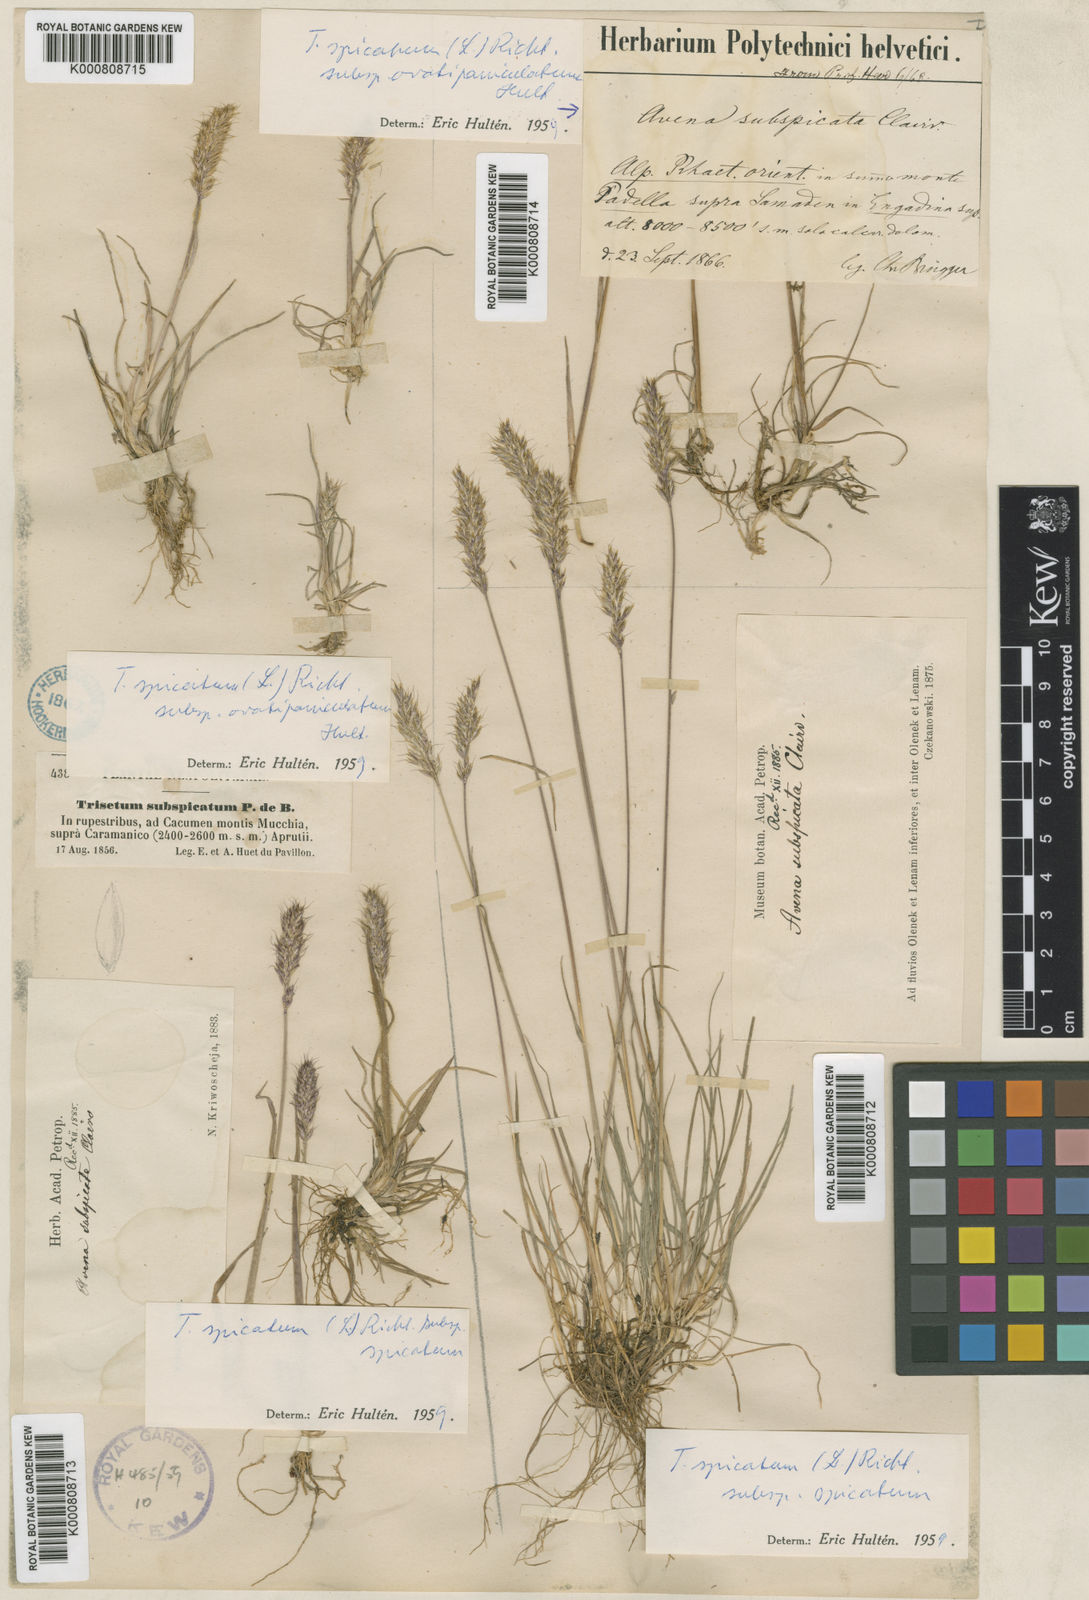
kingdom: Plantae
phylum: Tracheophyta
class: Liliopsida
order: Poales
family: Poaceae
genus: Koeleria
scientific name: Koeleria spicata
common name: Mountain trisetum
